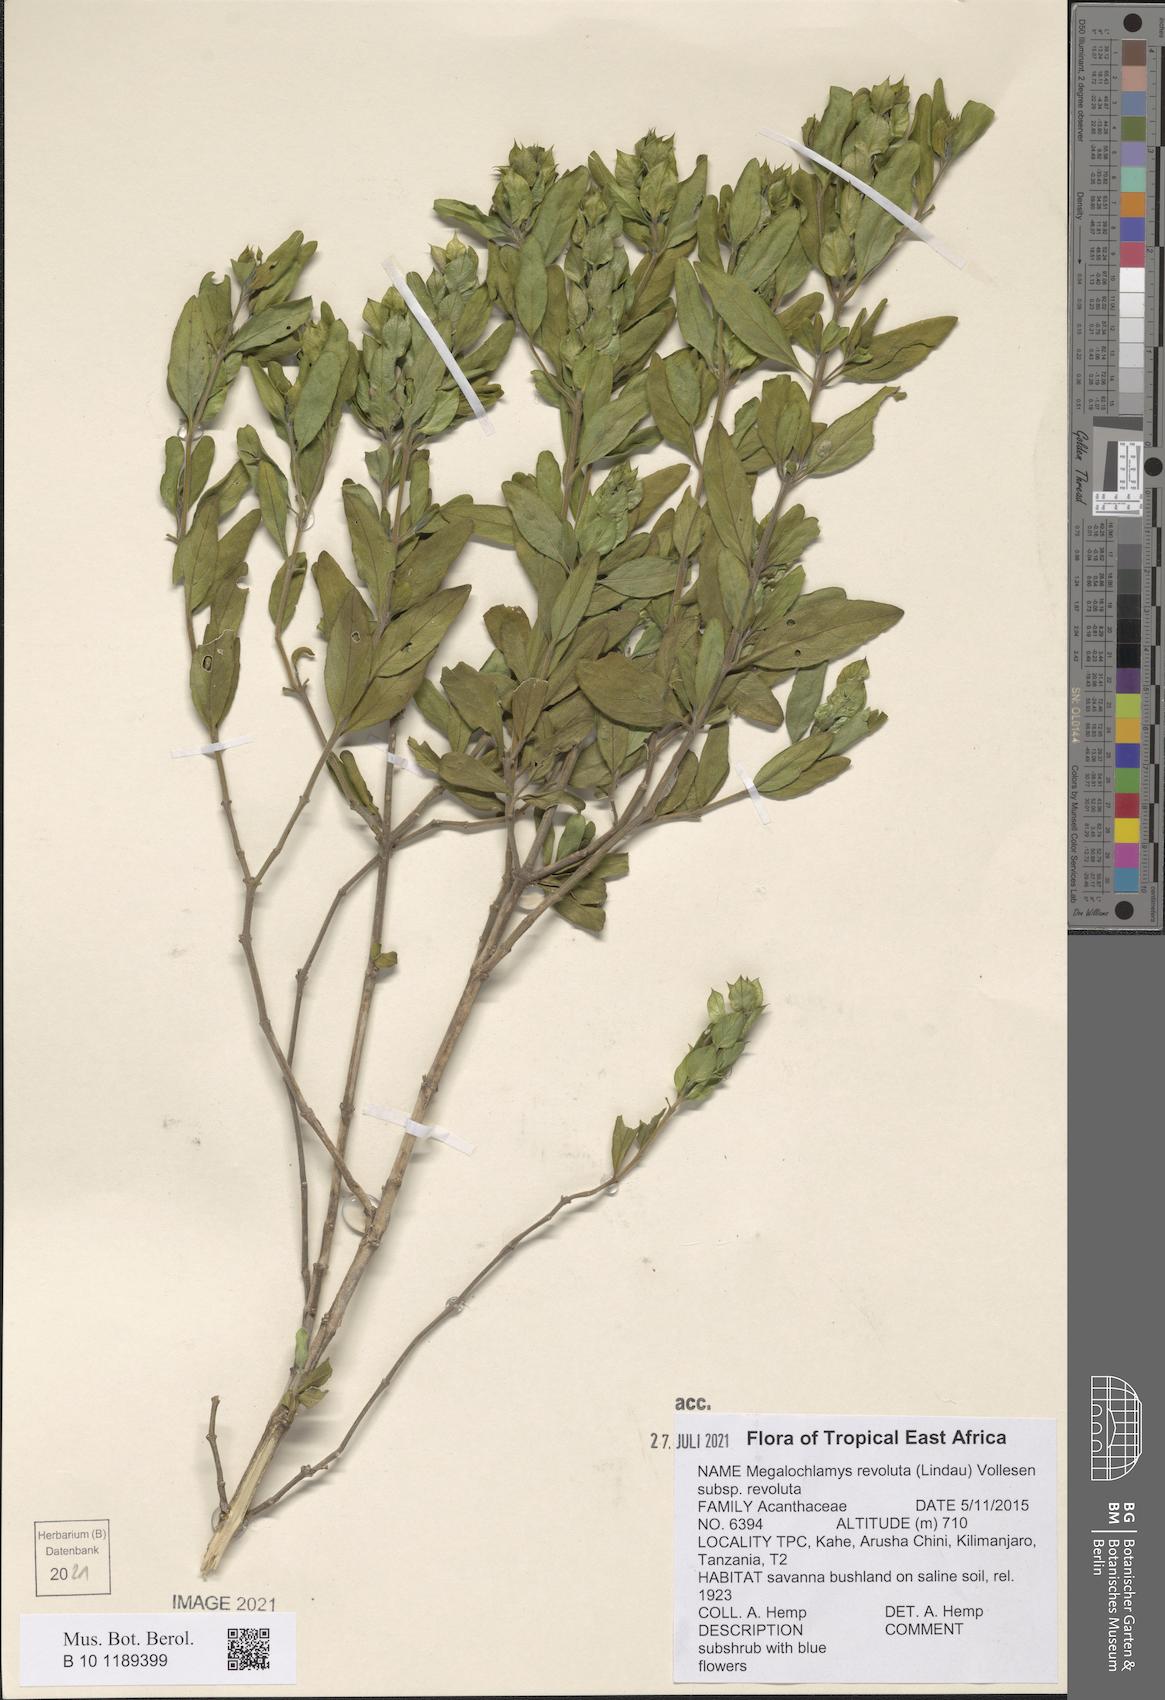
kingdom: Plantae
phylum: Tracheophyta
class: Magnoliopsida
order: Lamiales
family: Acanthaceae
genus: Megalochlamys
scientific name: Megalochlamys revoluta
